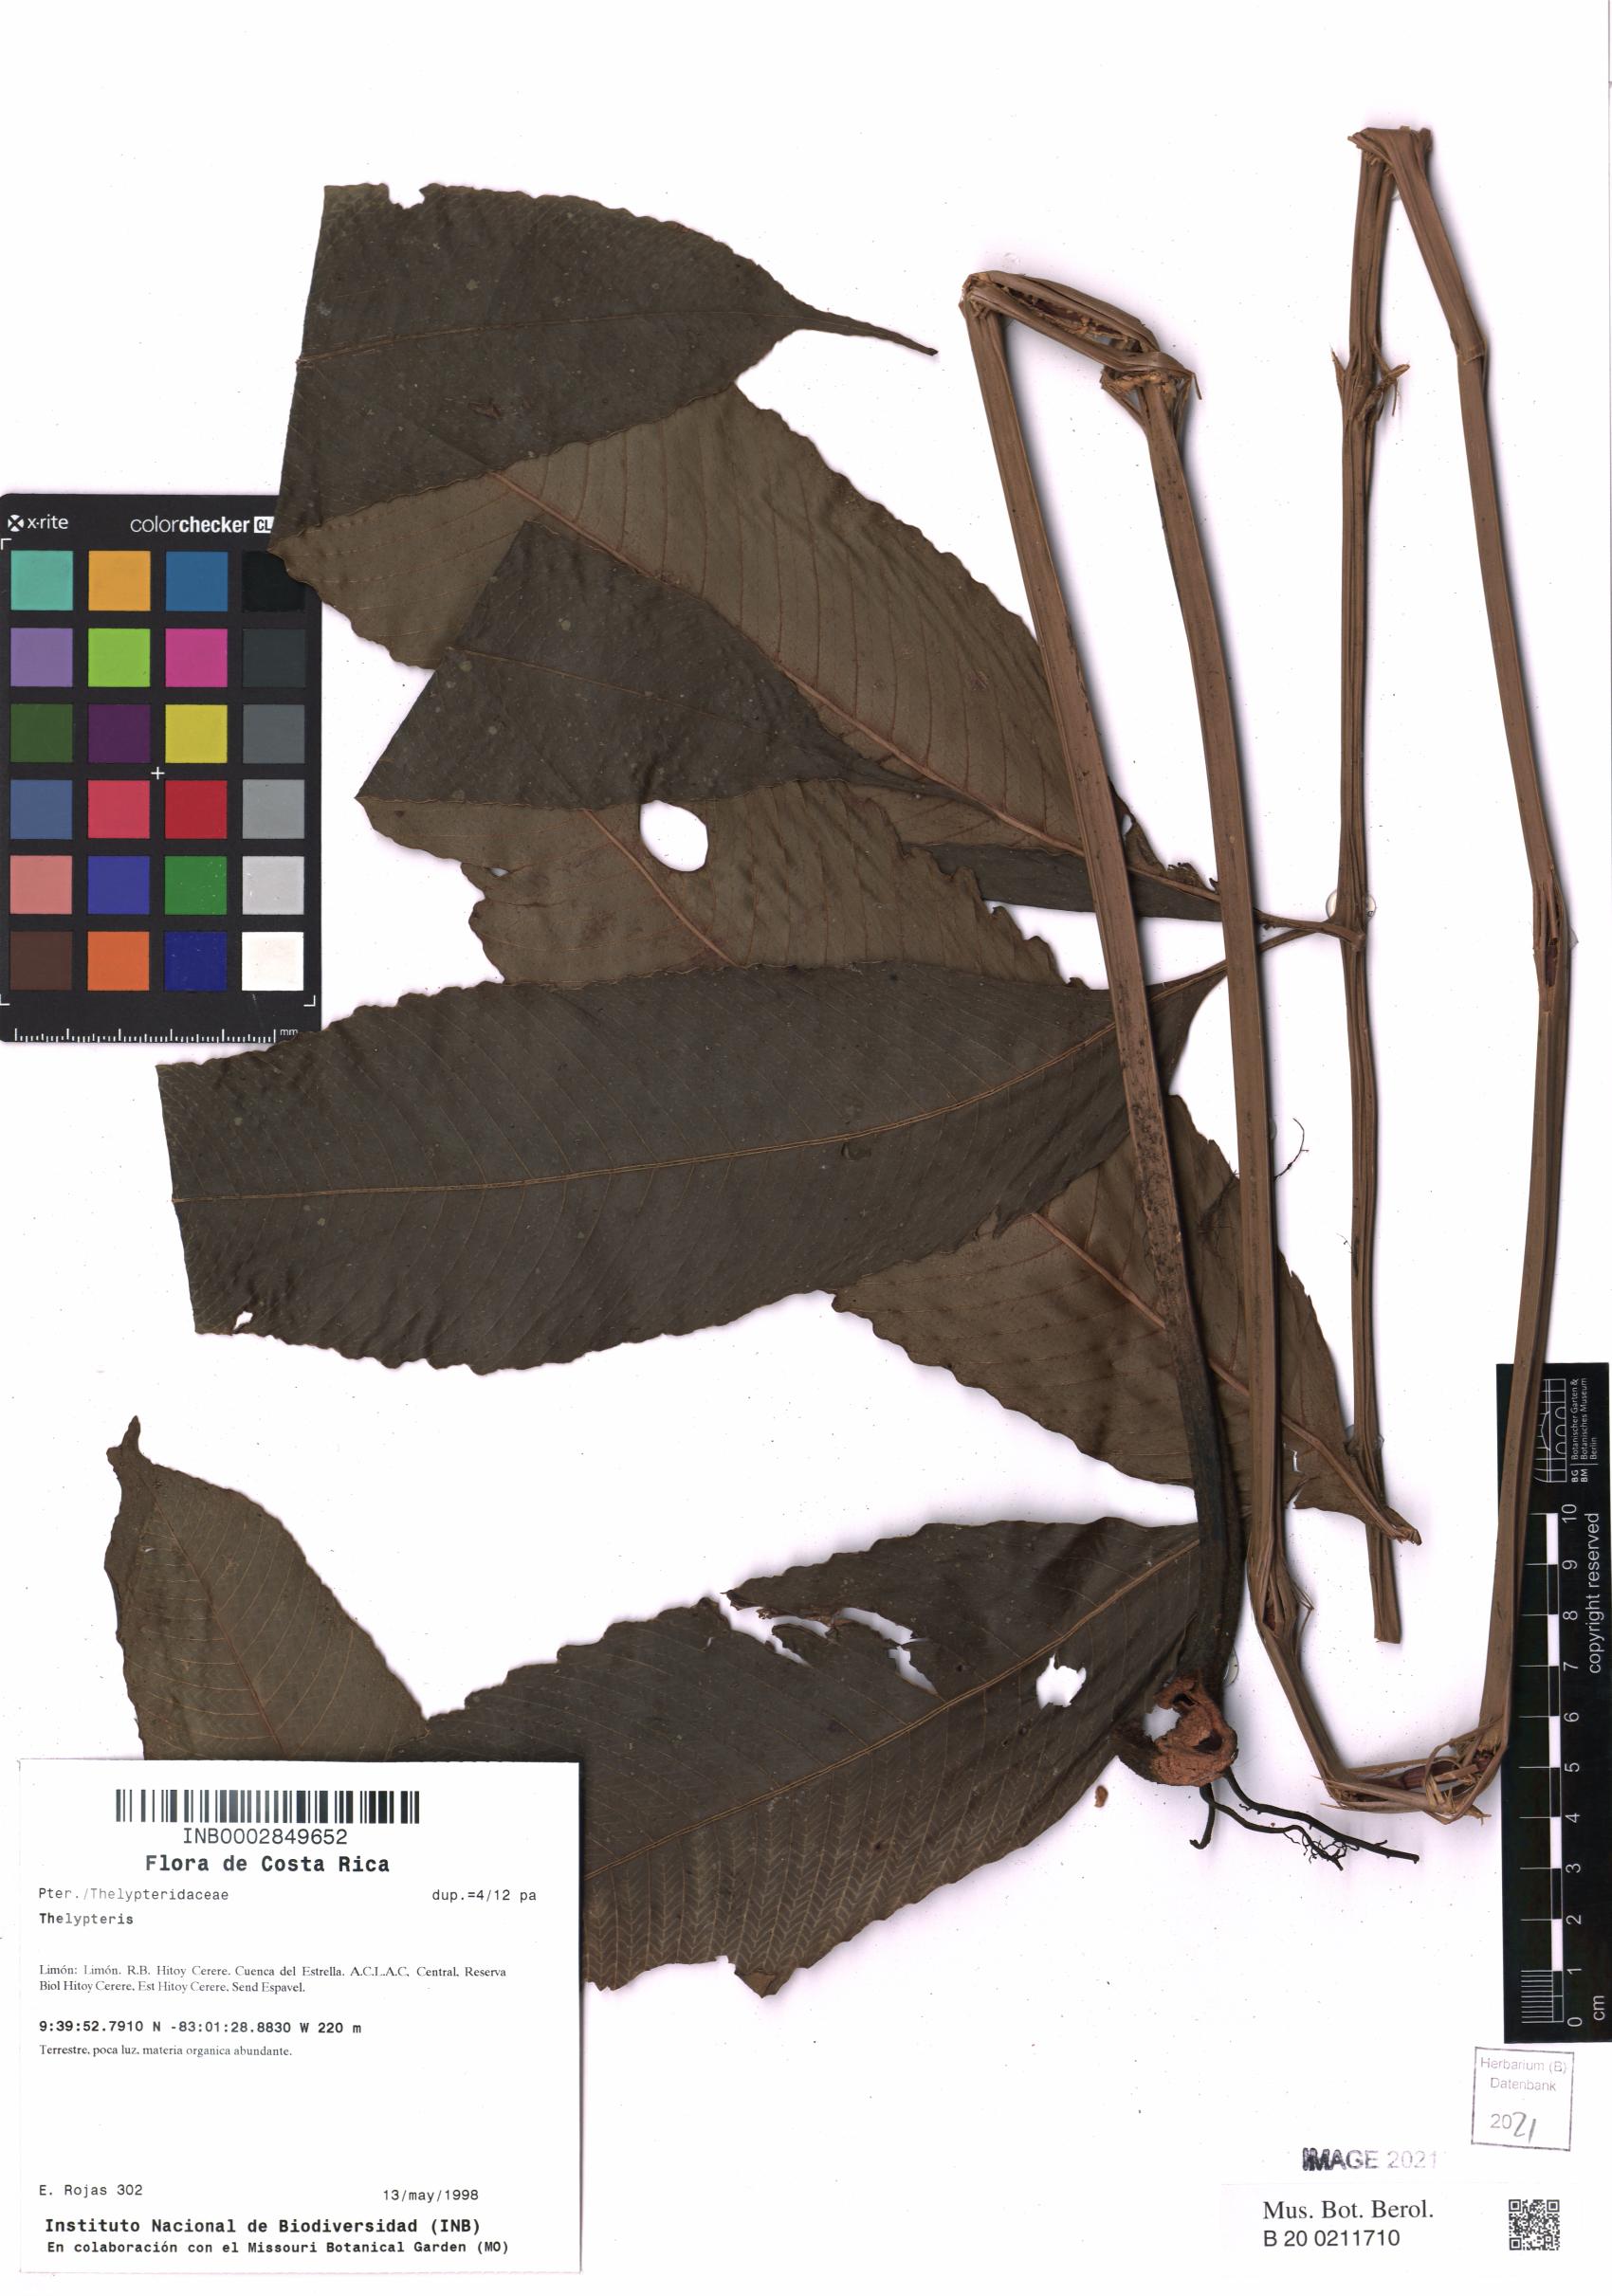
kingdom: Plantae
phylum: Tracheophyta
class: Polypodiopsida
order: Polypodiales
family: Thelypteridaceae
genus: Thelypteris
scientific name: Thelypteris
